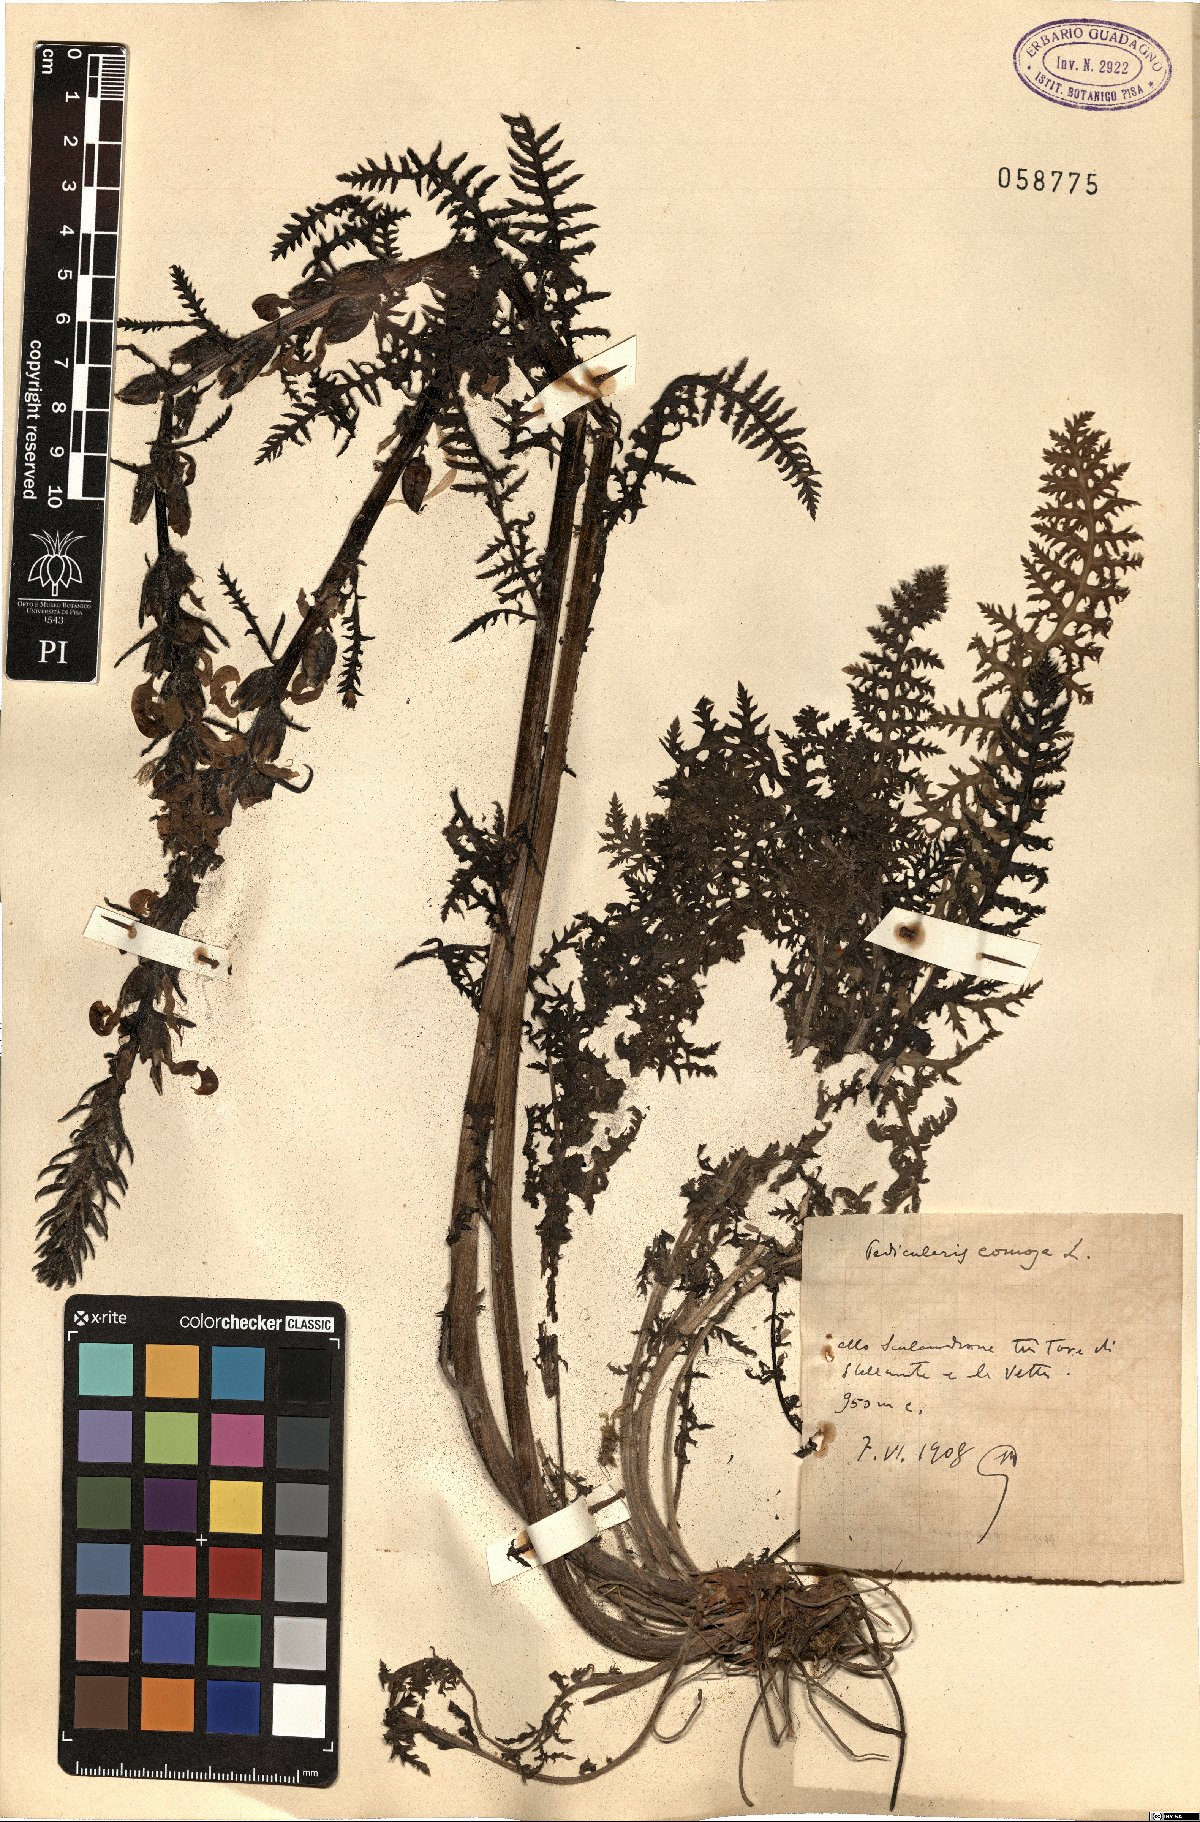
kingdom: Plantae
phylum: Tracheophyta
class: Magnoliopsida
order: Lamiales
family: Orobanchaceae
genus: Pedicularis
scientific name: Pedicularis comosa
